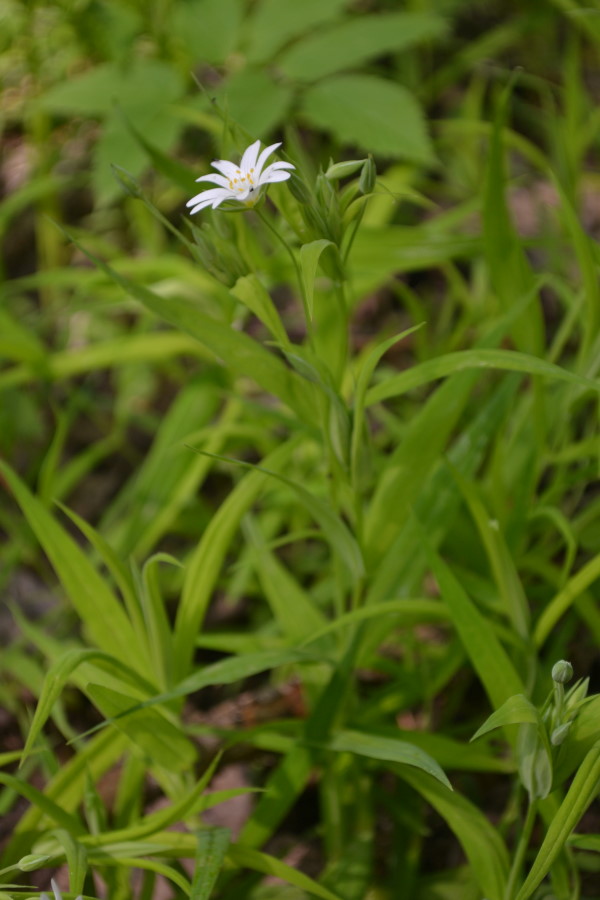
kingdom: Plantae
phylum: Tracheophyta
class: Magnoliopsida
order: Caryophyllales
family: Caryophyllaceae
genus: Rabelera
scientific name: Rabelera holostea
